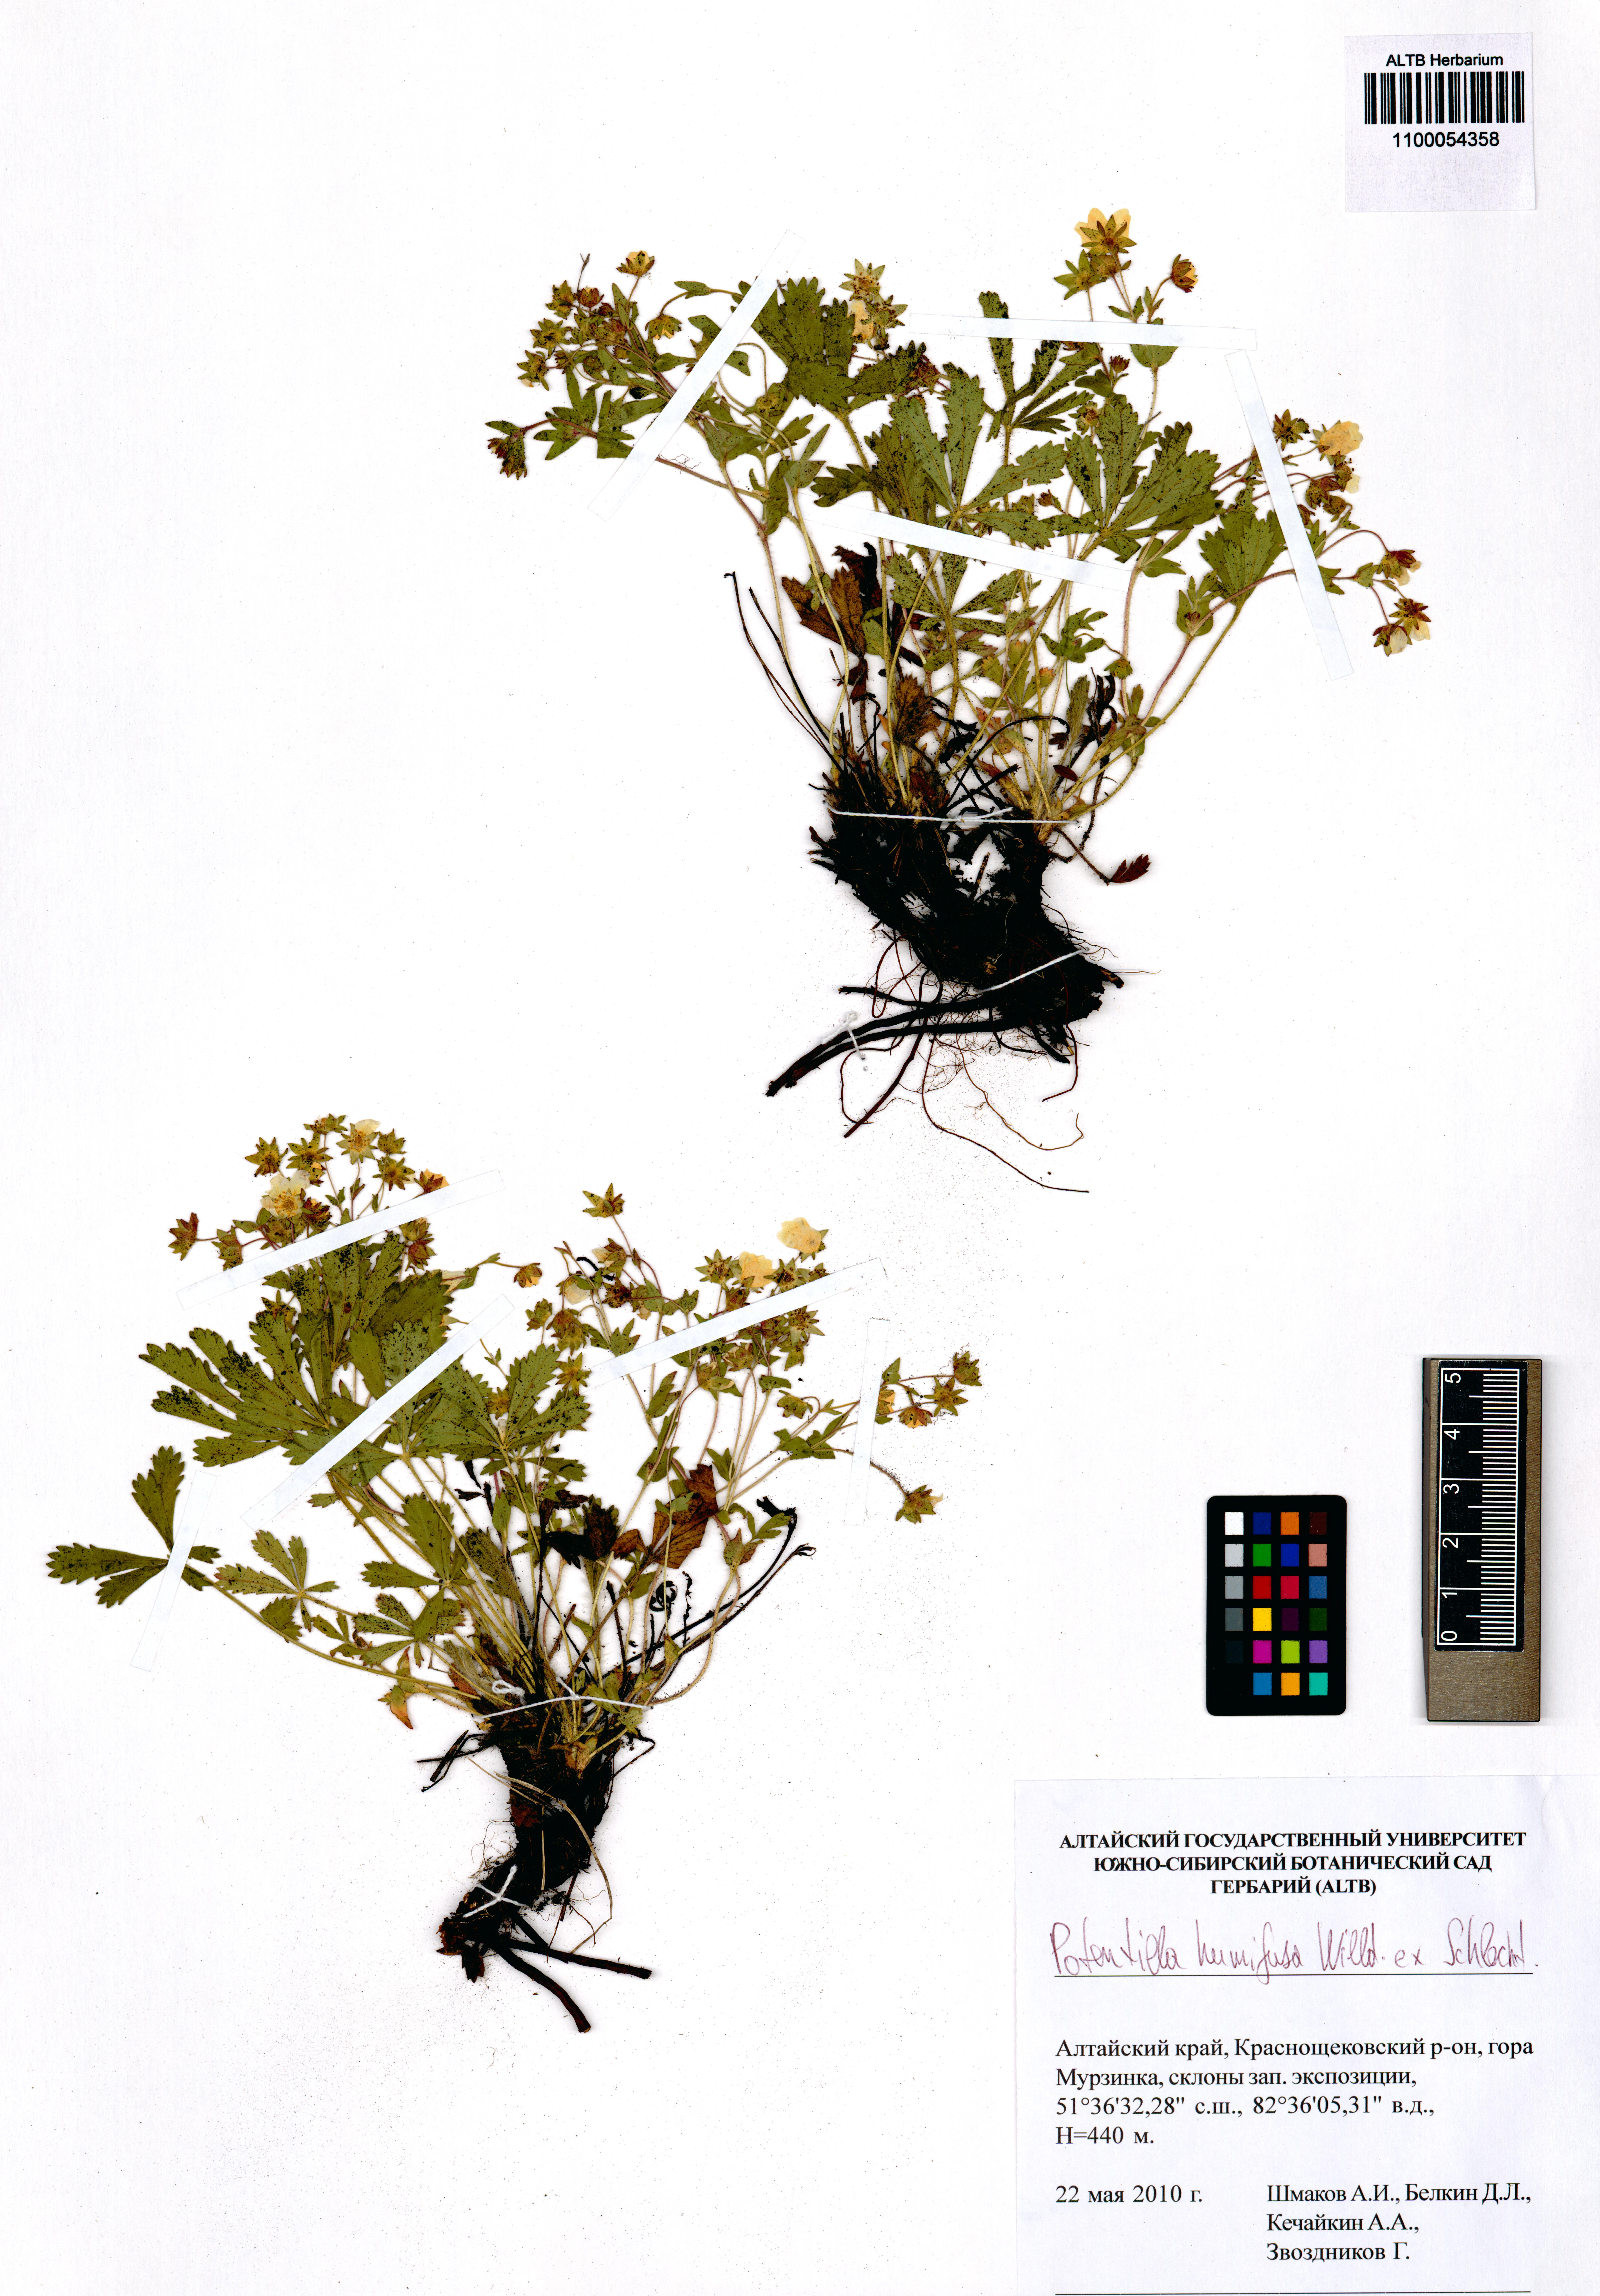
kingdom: Plantae
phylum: Tracheophyta
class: Magnoliopsida
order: Rosales
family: Rosaceae
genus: Potentilla
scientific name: Potentilla humifusa
